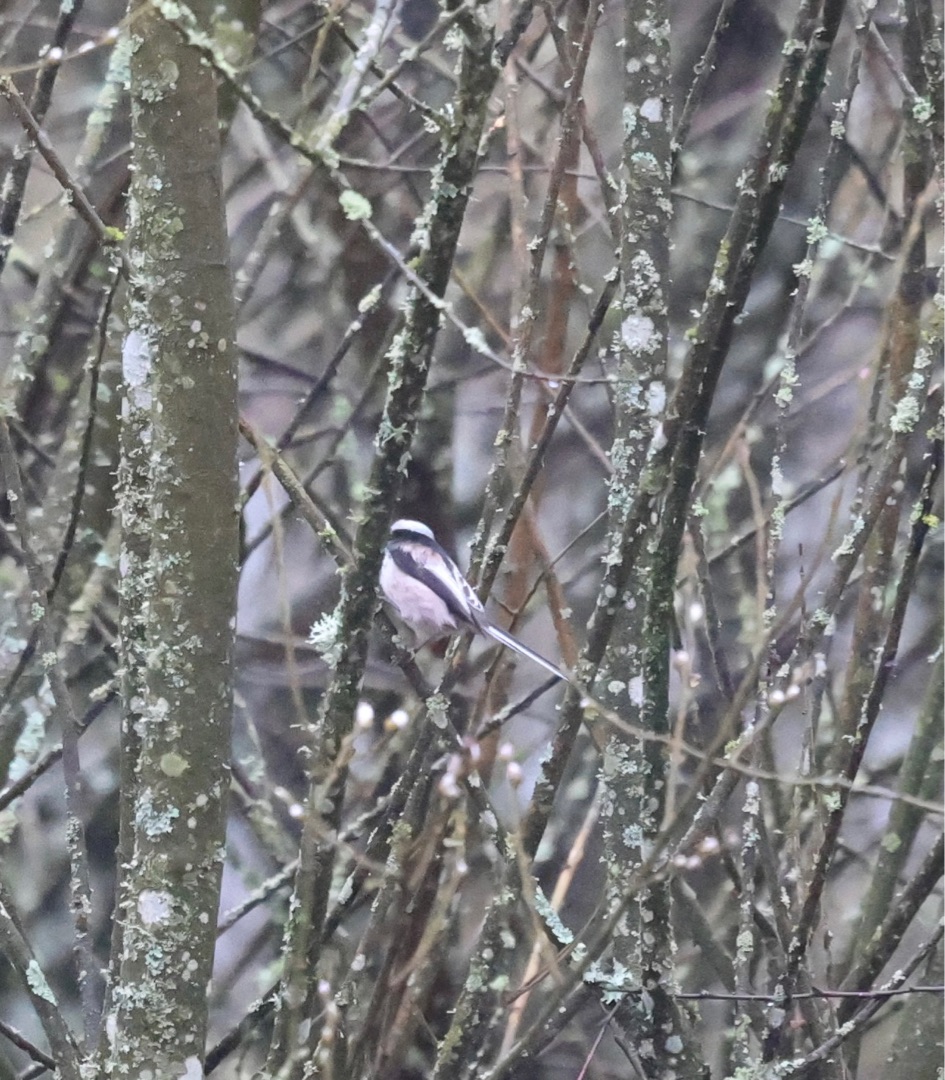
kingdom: Animalia
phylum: Chordata
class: Aves
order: Passeriformes
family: Aegithalidae
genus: Aegithalos
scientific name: Aegithalos caudatus
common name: Nordlig halemejse
